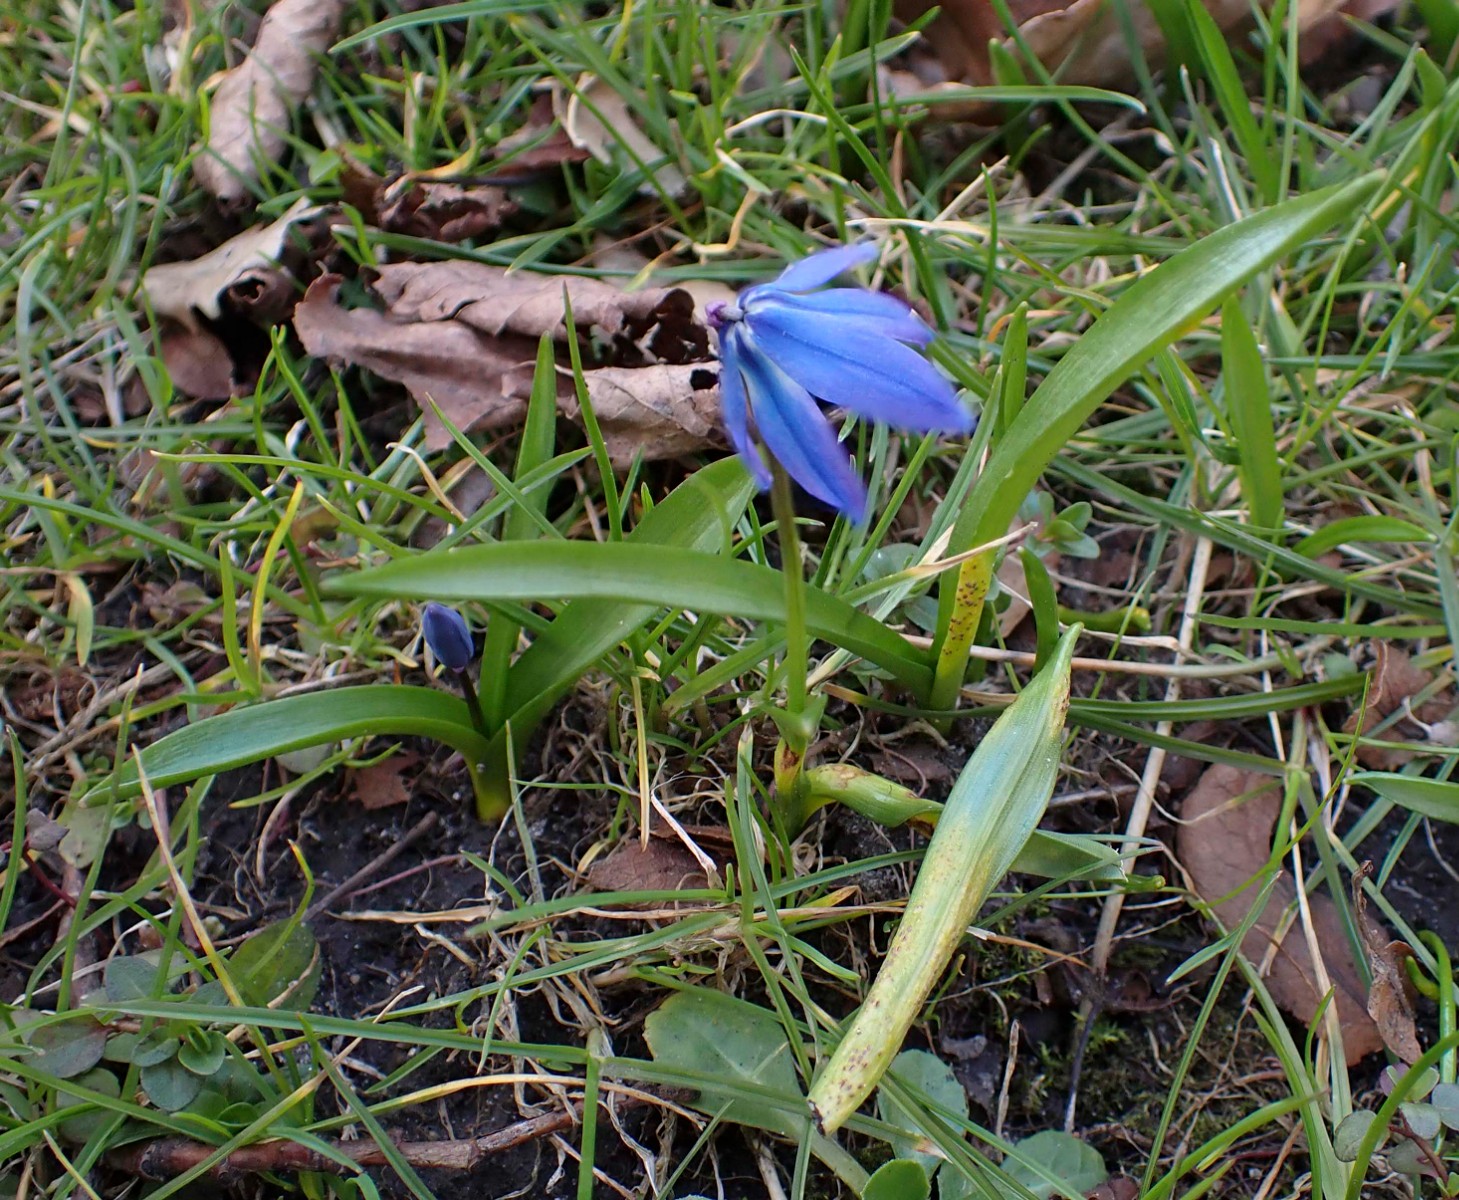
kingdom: Fungi
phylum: Basidiomycota
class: Pucciniomycetes
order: Pucciniales
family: Pucciniaceae
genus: Puccinia
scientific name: Puccinia scillae
